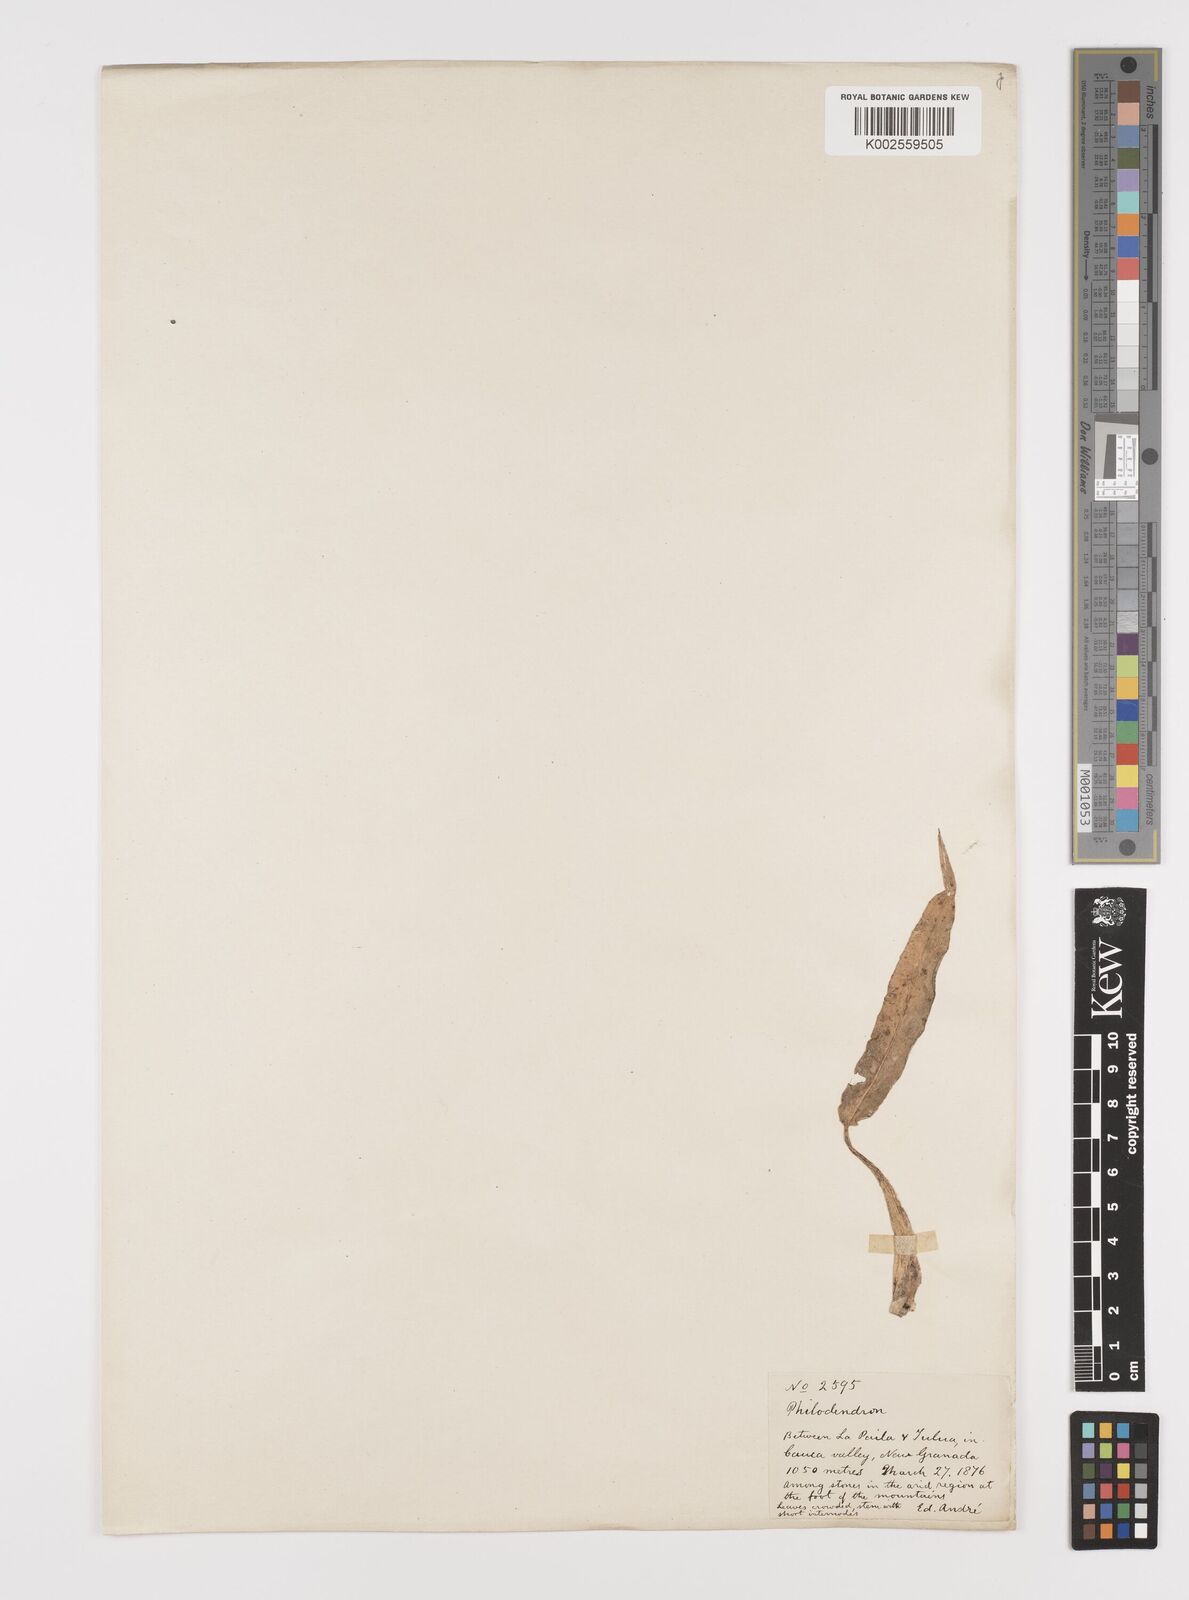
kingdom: Plantae
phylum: Tracheophyta
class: Liliopsida
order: Alismatales
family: Araceae
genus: Philodendron
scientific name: Philodendron
